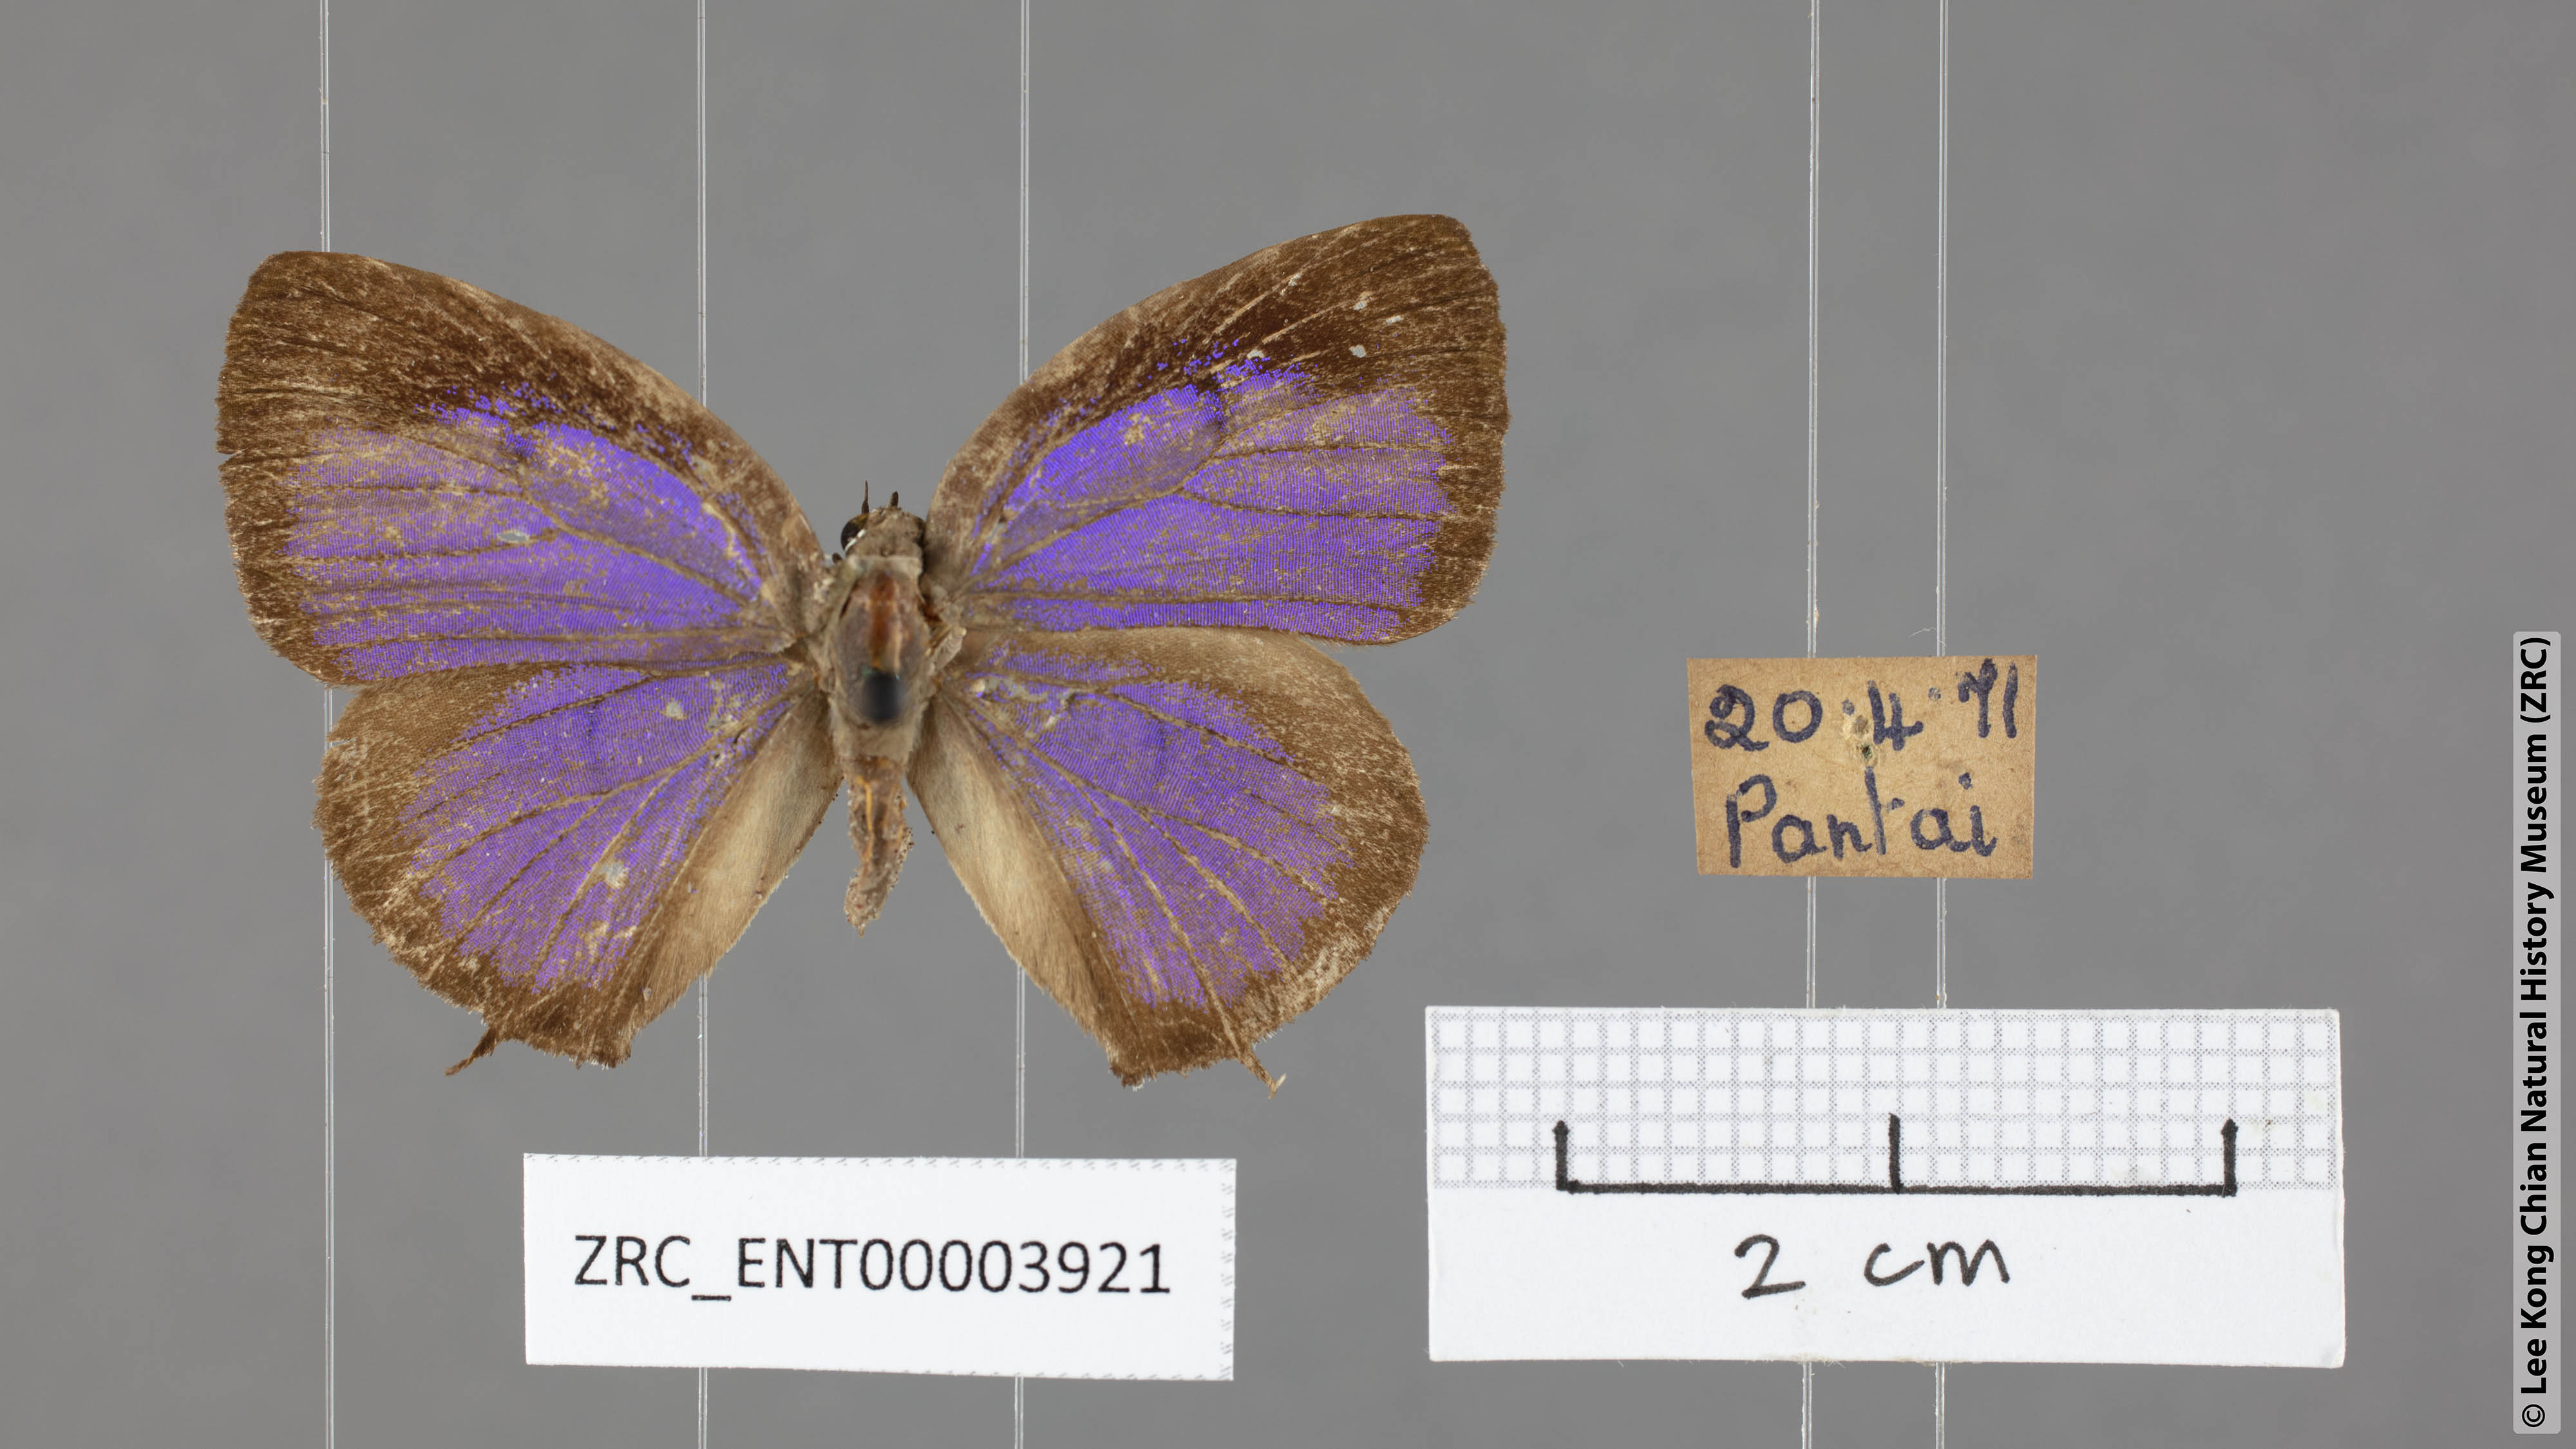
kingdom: Animalia
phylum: Arthropoda
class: Insecta
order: Lepidoptera
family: Lycaenidae
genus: Arhopala
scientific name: Arhopala elopura
